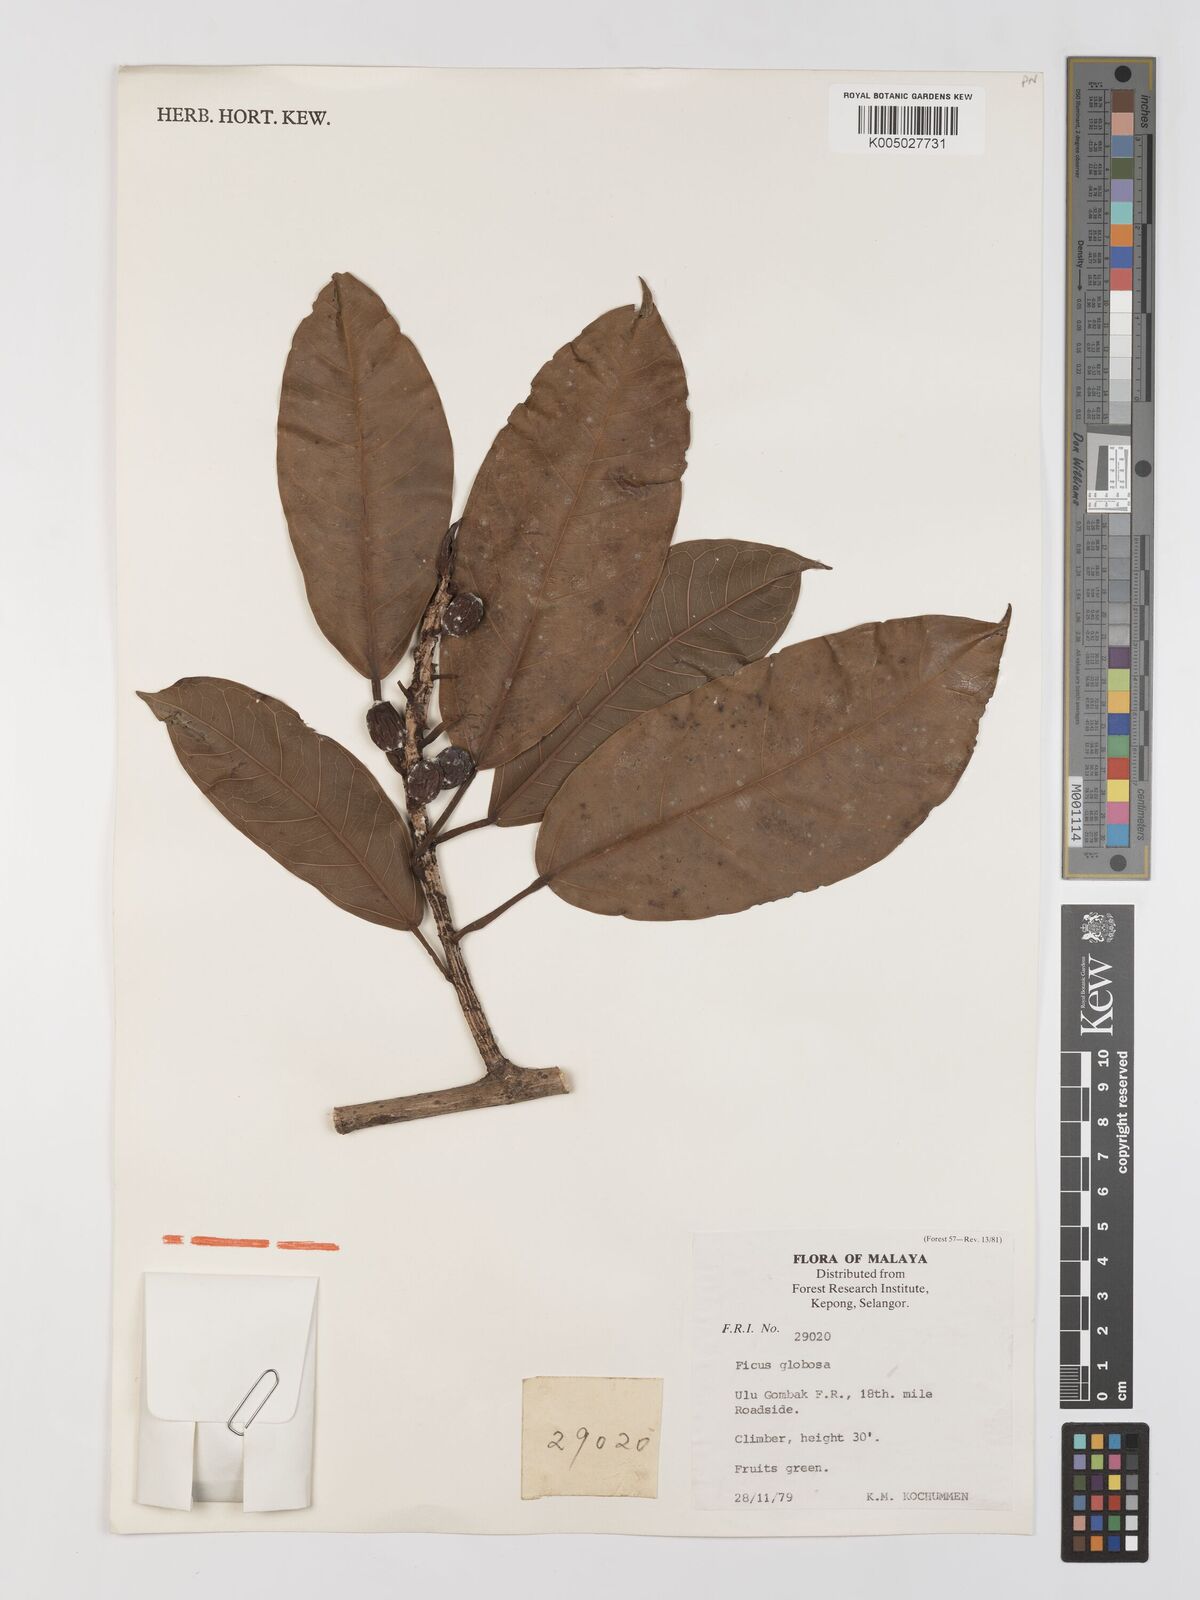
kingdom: Plantae
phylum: Tracheophyta
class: Magnoliopsida
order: Rosales
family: Moraceae
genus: Ficus
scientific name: Ficus
